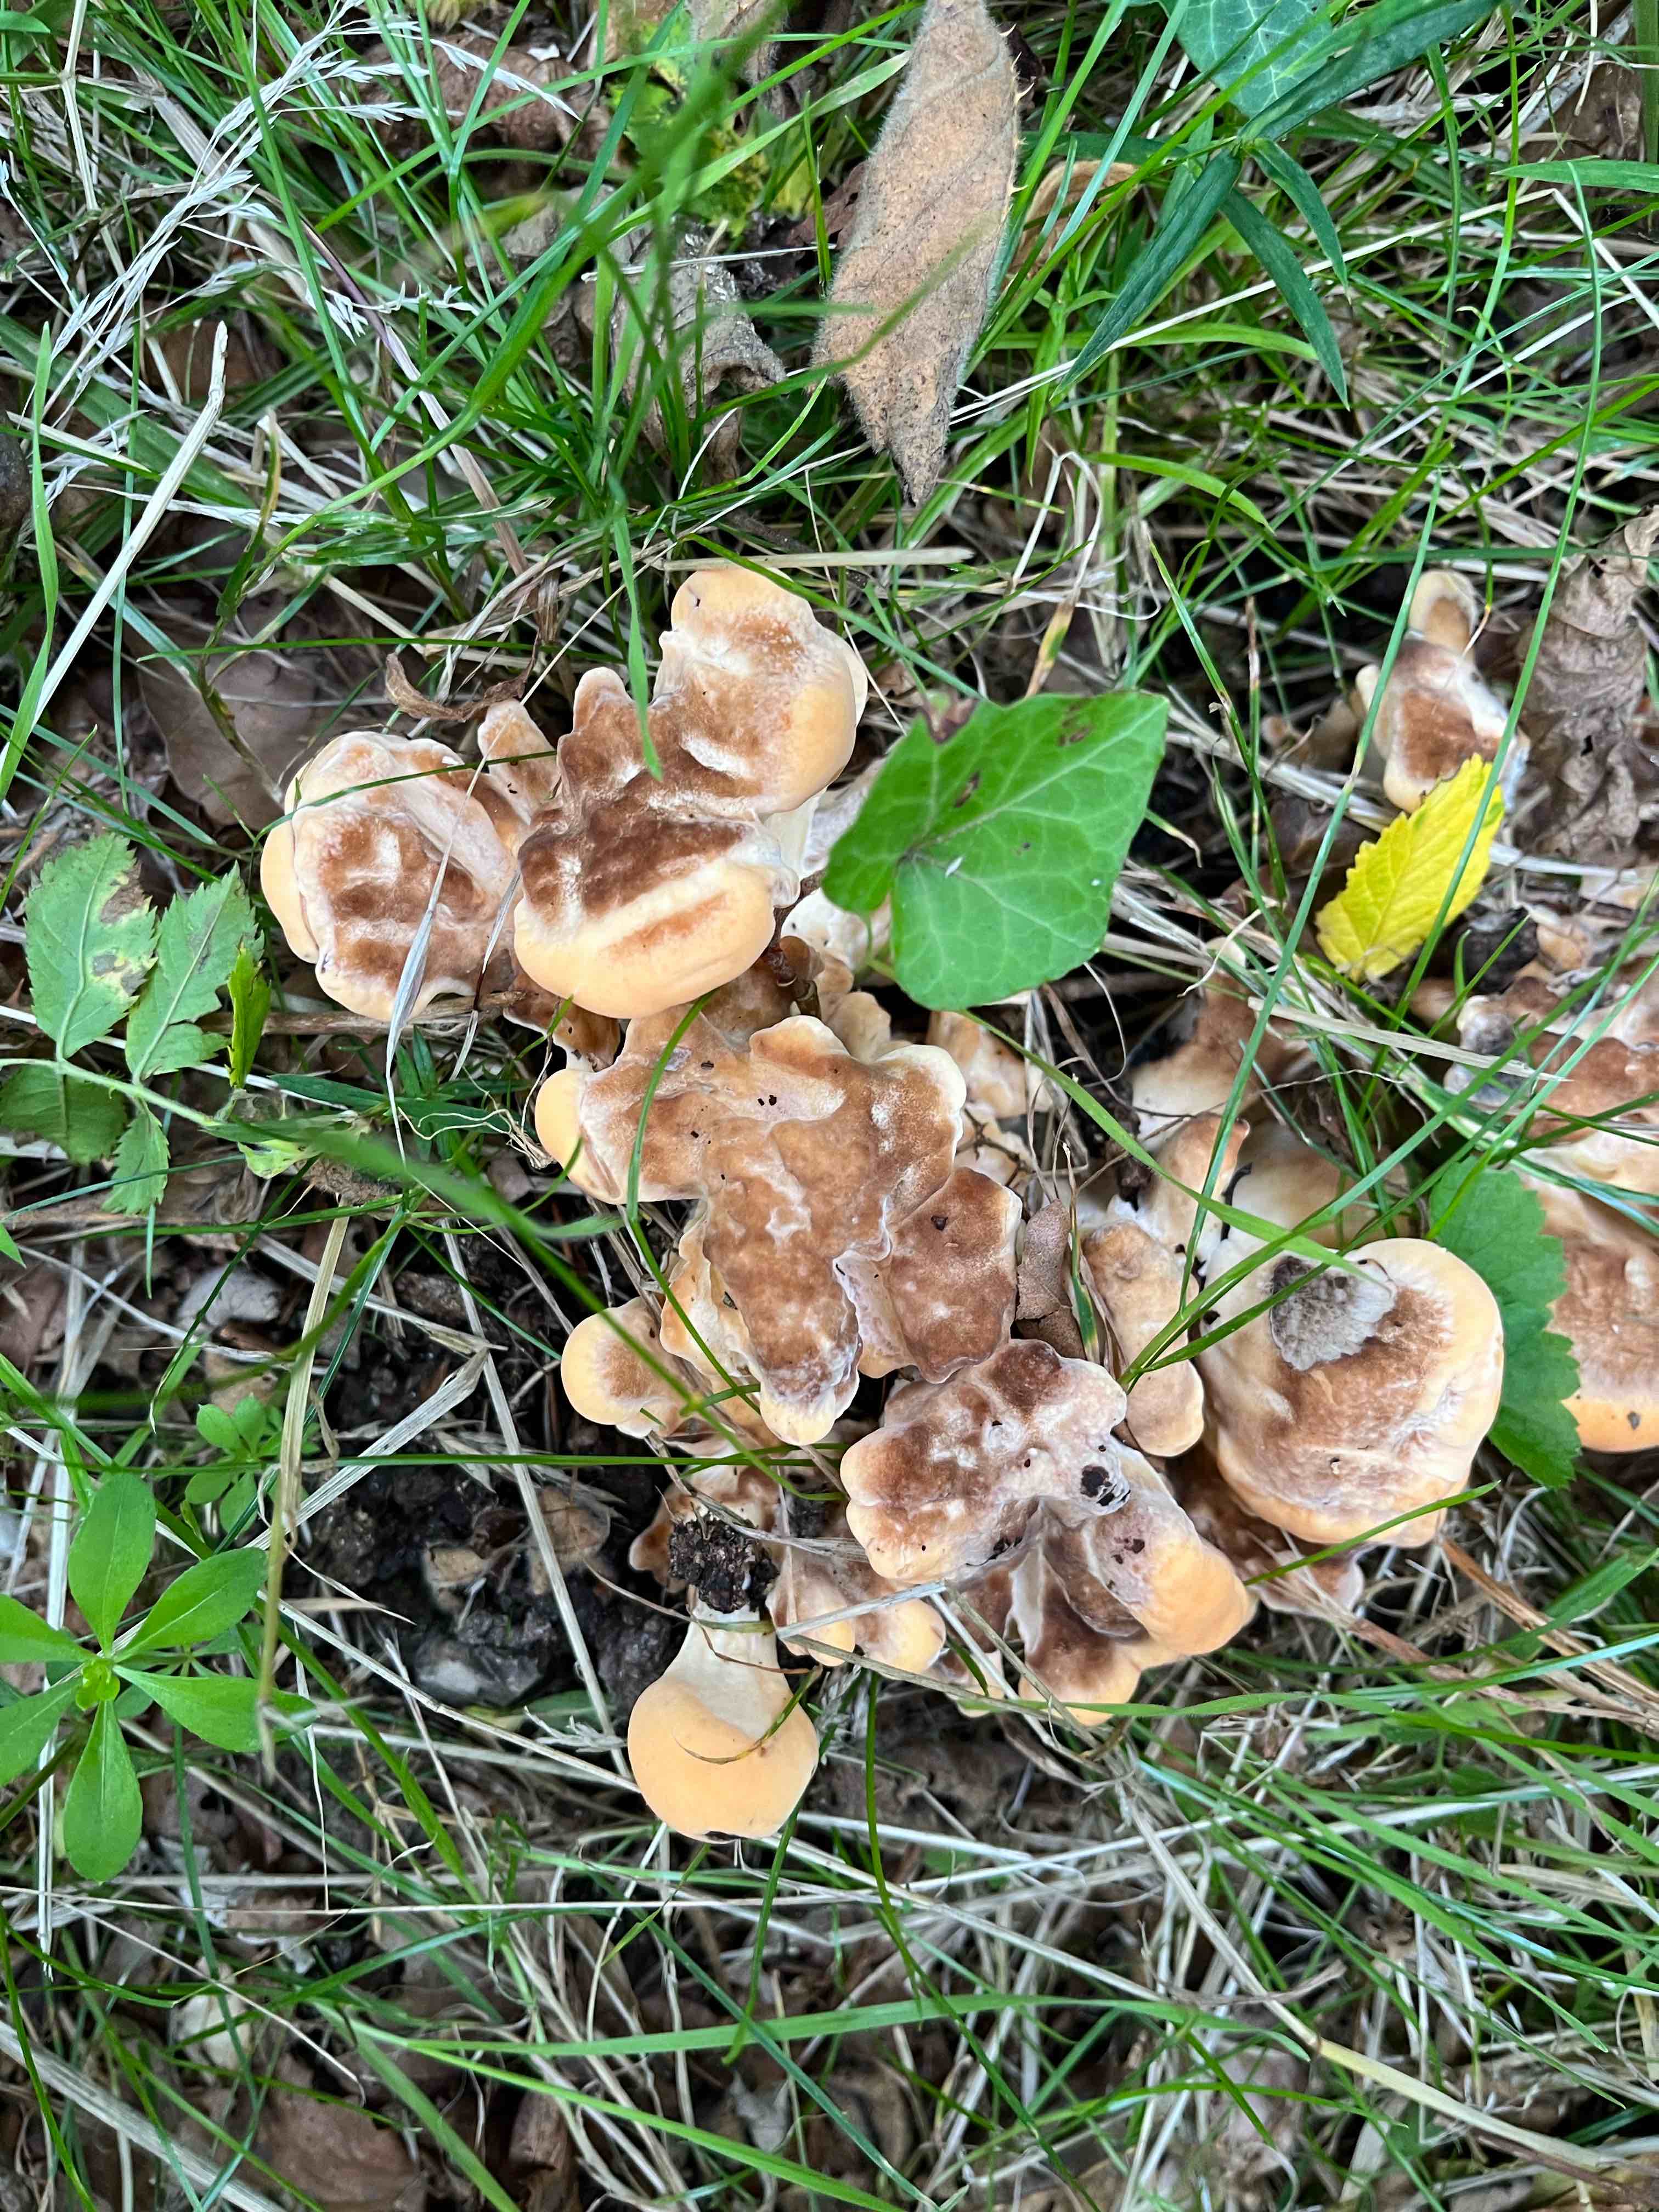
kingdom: Fungi
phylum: Basidiomycota
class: Agaricomycetes
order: Polyporales
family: Meripilaceae
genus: Meripilus
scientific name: Meripilus giganteus
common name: kæmpeporesvamp
